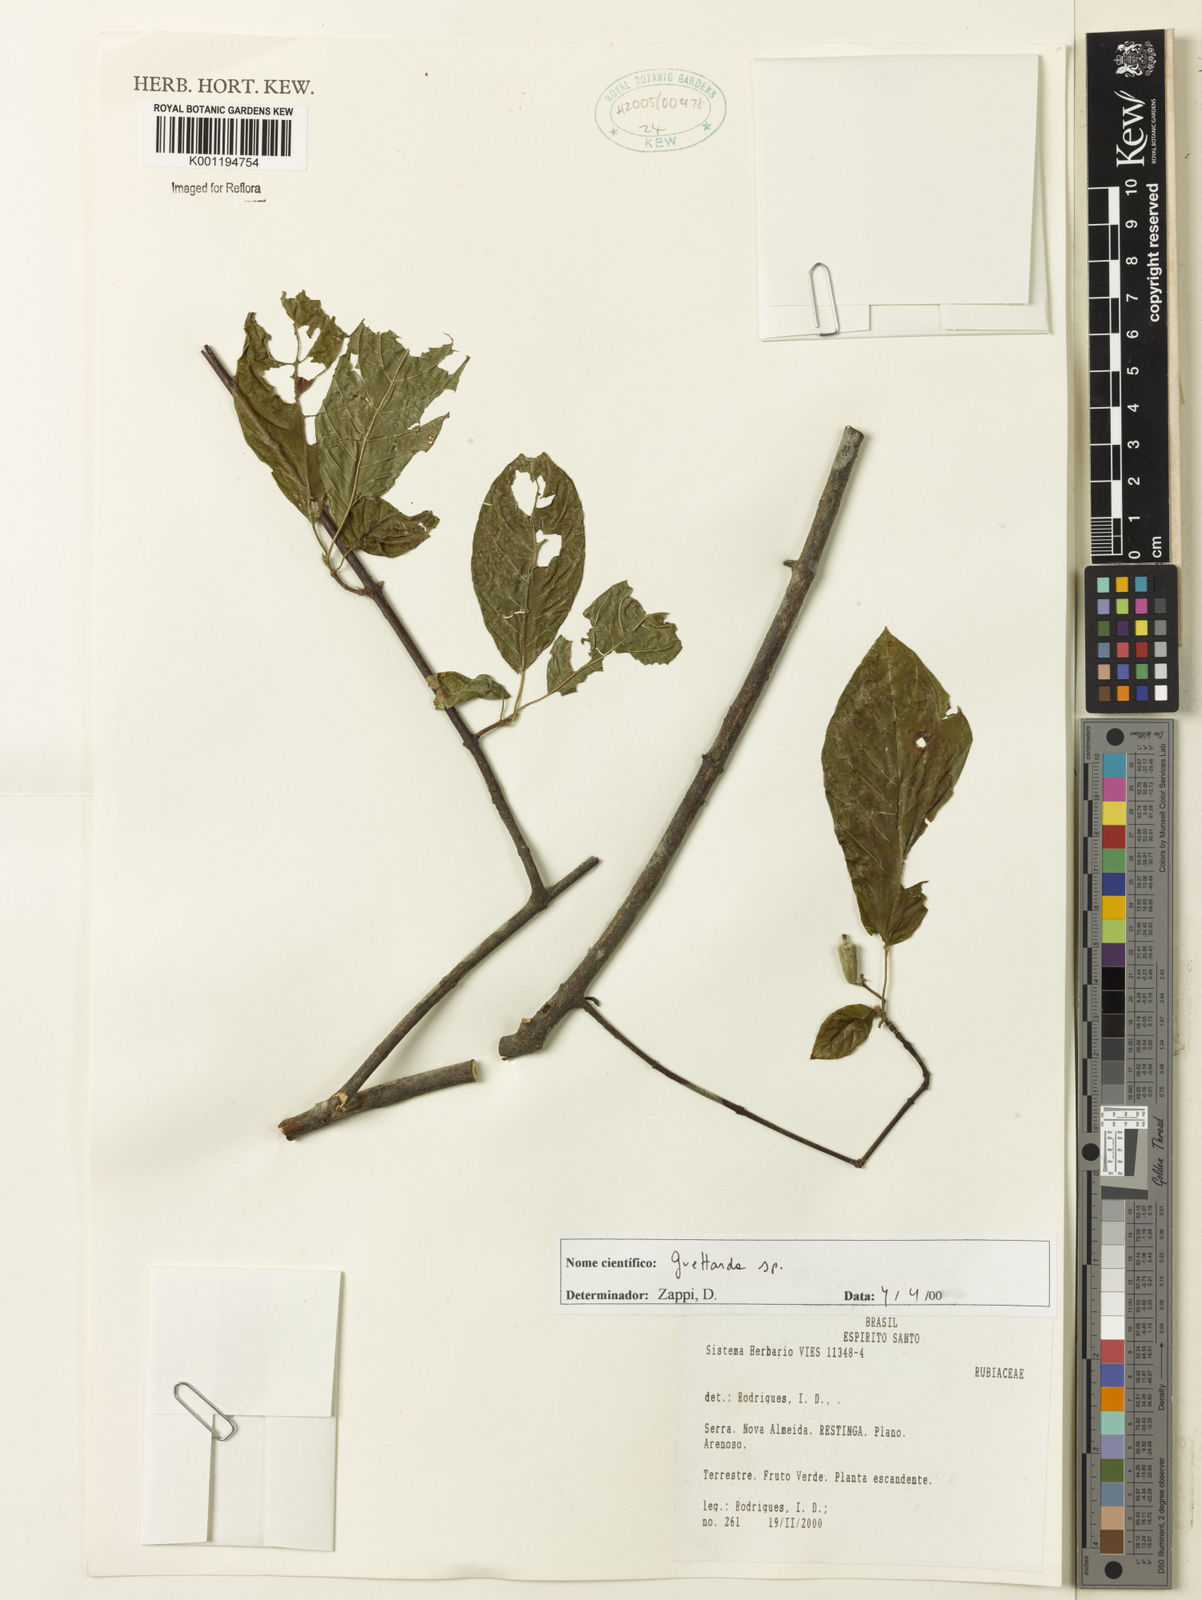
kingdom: Plantae
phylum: Tracheophyta
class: Magnoliopsida
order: Gentianales
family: Rubiaceae
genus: Guettarda
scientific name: Guettarda
